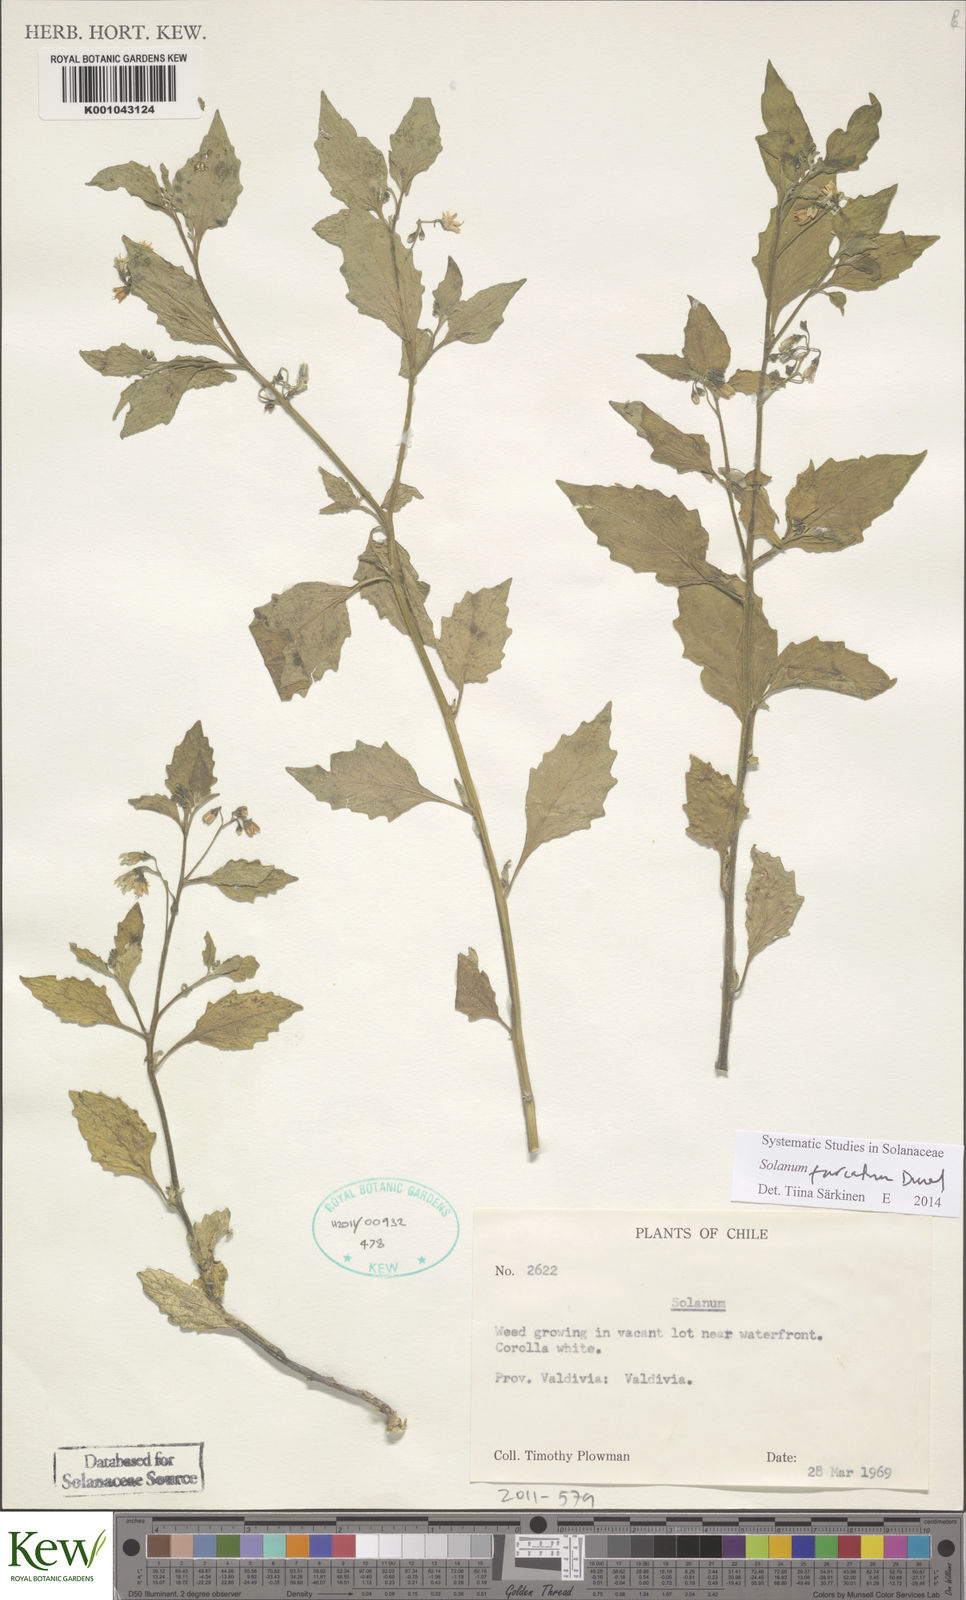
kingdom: Plantae
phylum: Tracheophyta
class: Magnoliopsida
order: Solanales
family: Solanaceae
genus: Solanum
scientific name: Solanum furcatum
